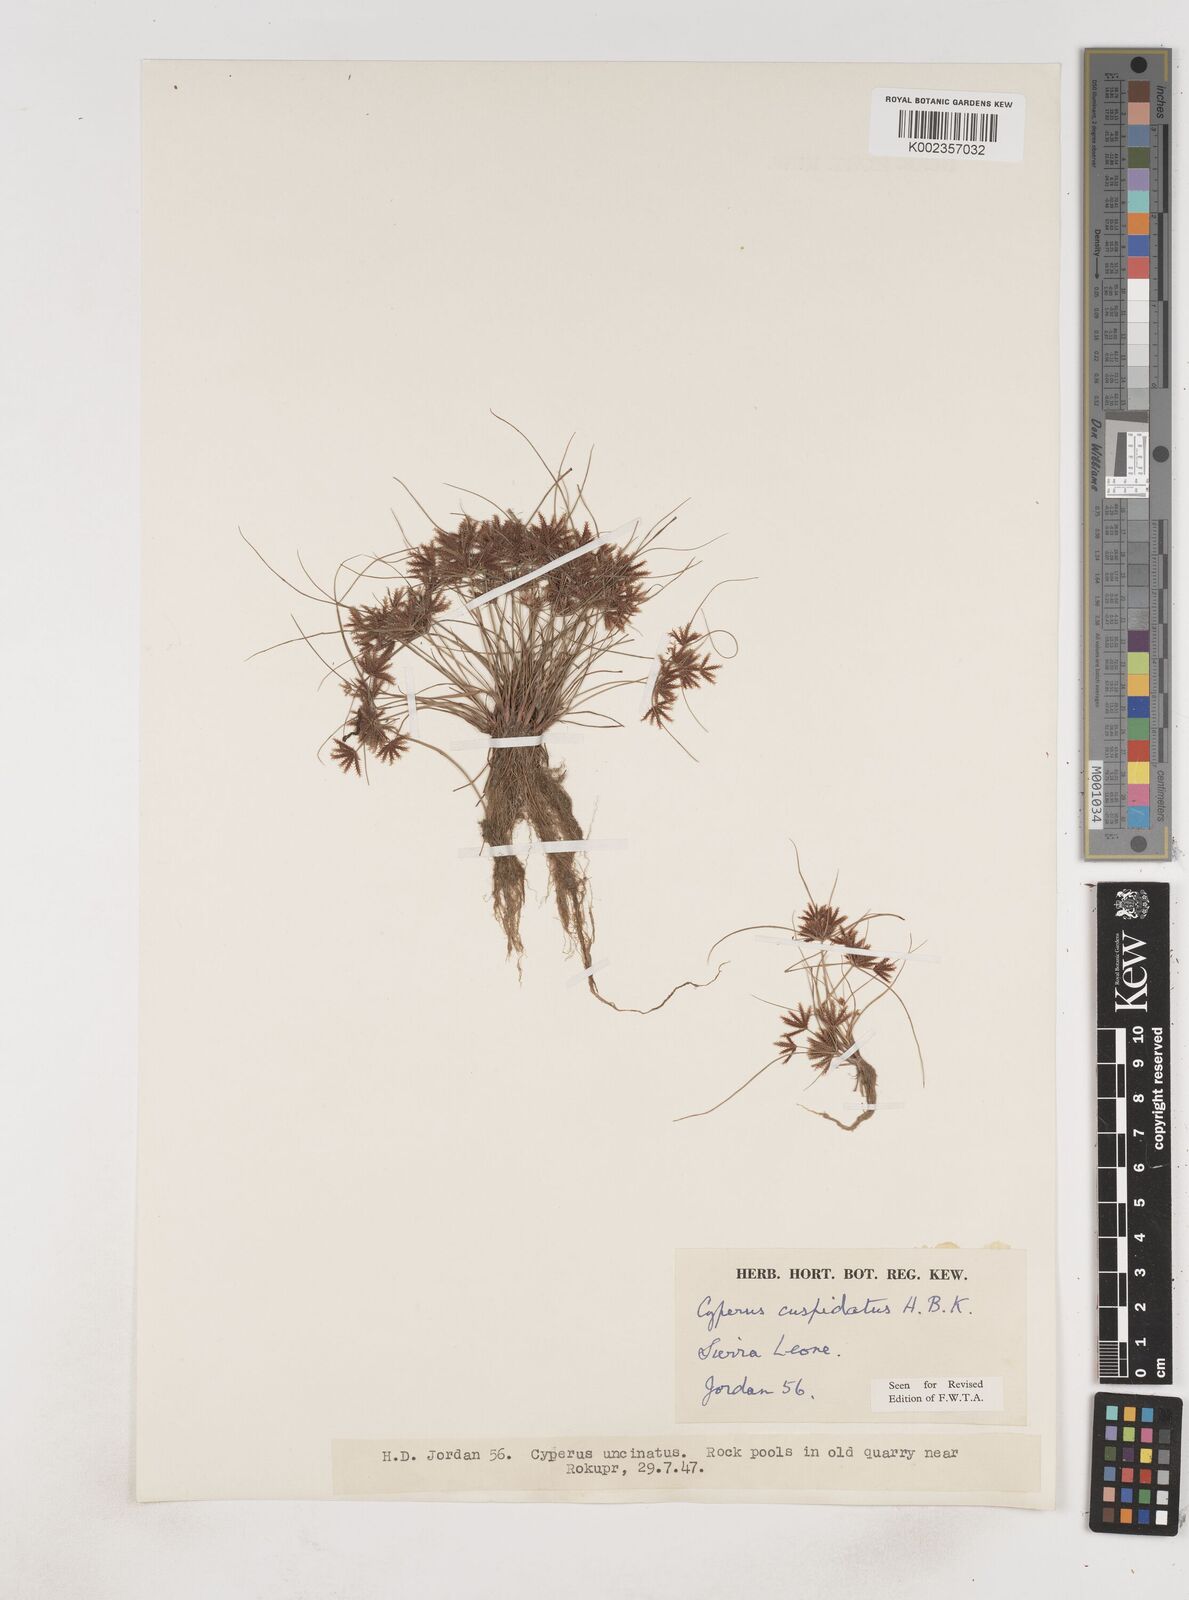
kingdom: Plantae
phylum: Tracheophyta
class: Liliopsida
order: Poales
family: Cyperaceae
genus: Cyperus
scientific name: Cyperus
